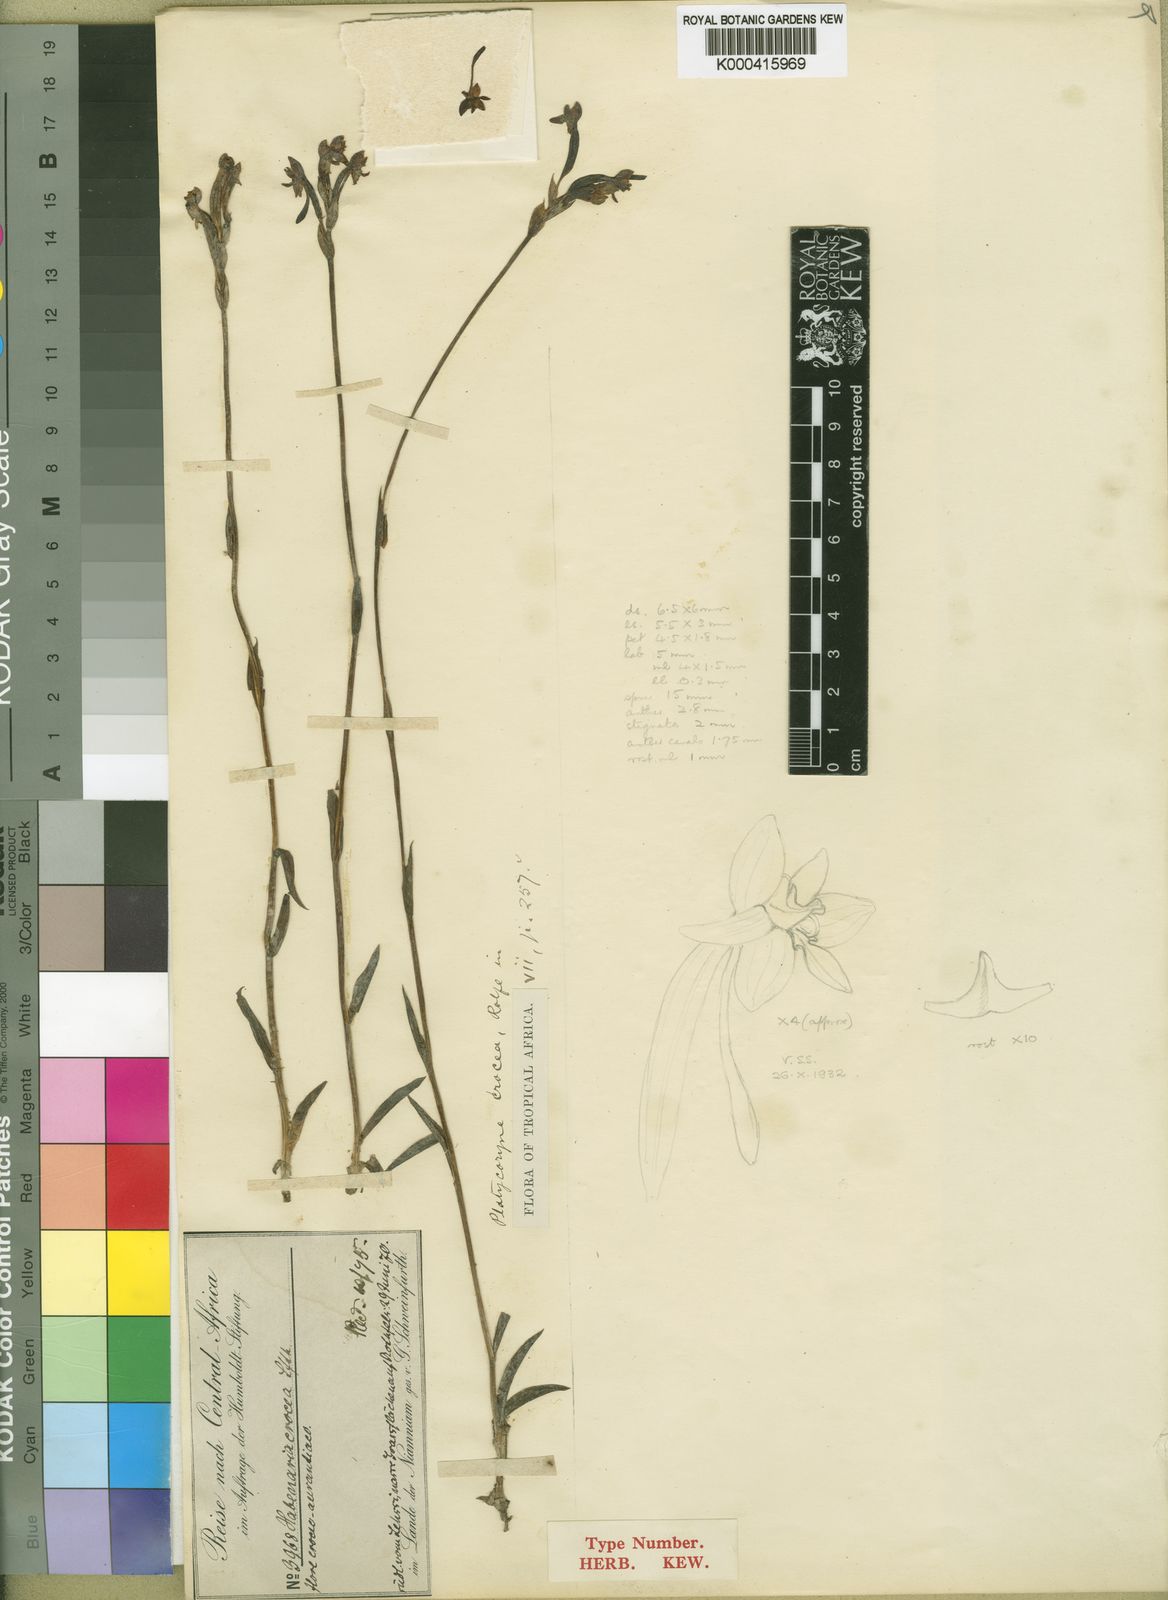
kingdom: Plantae
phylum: Tracheophyta
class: Liliopsida
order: Asparagales
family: Orchidaceae
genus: Platycoryne
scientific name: Platycoryne crocea
